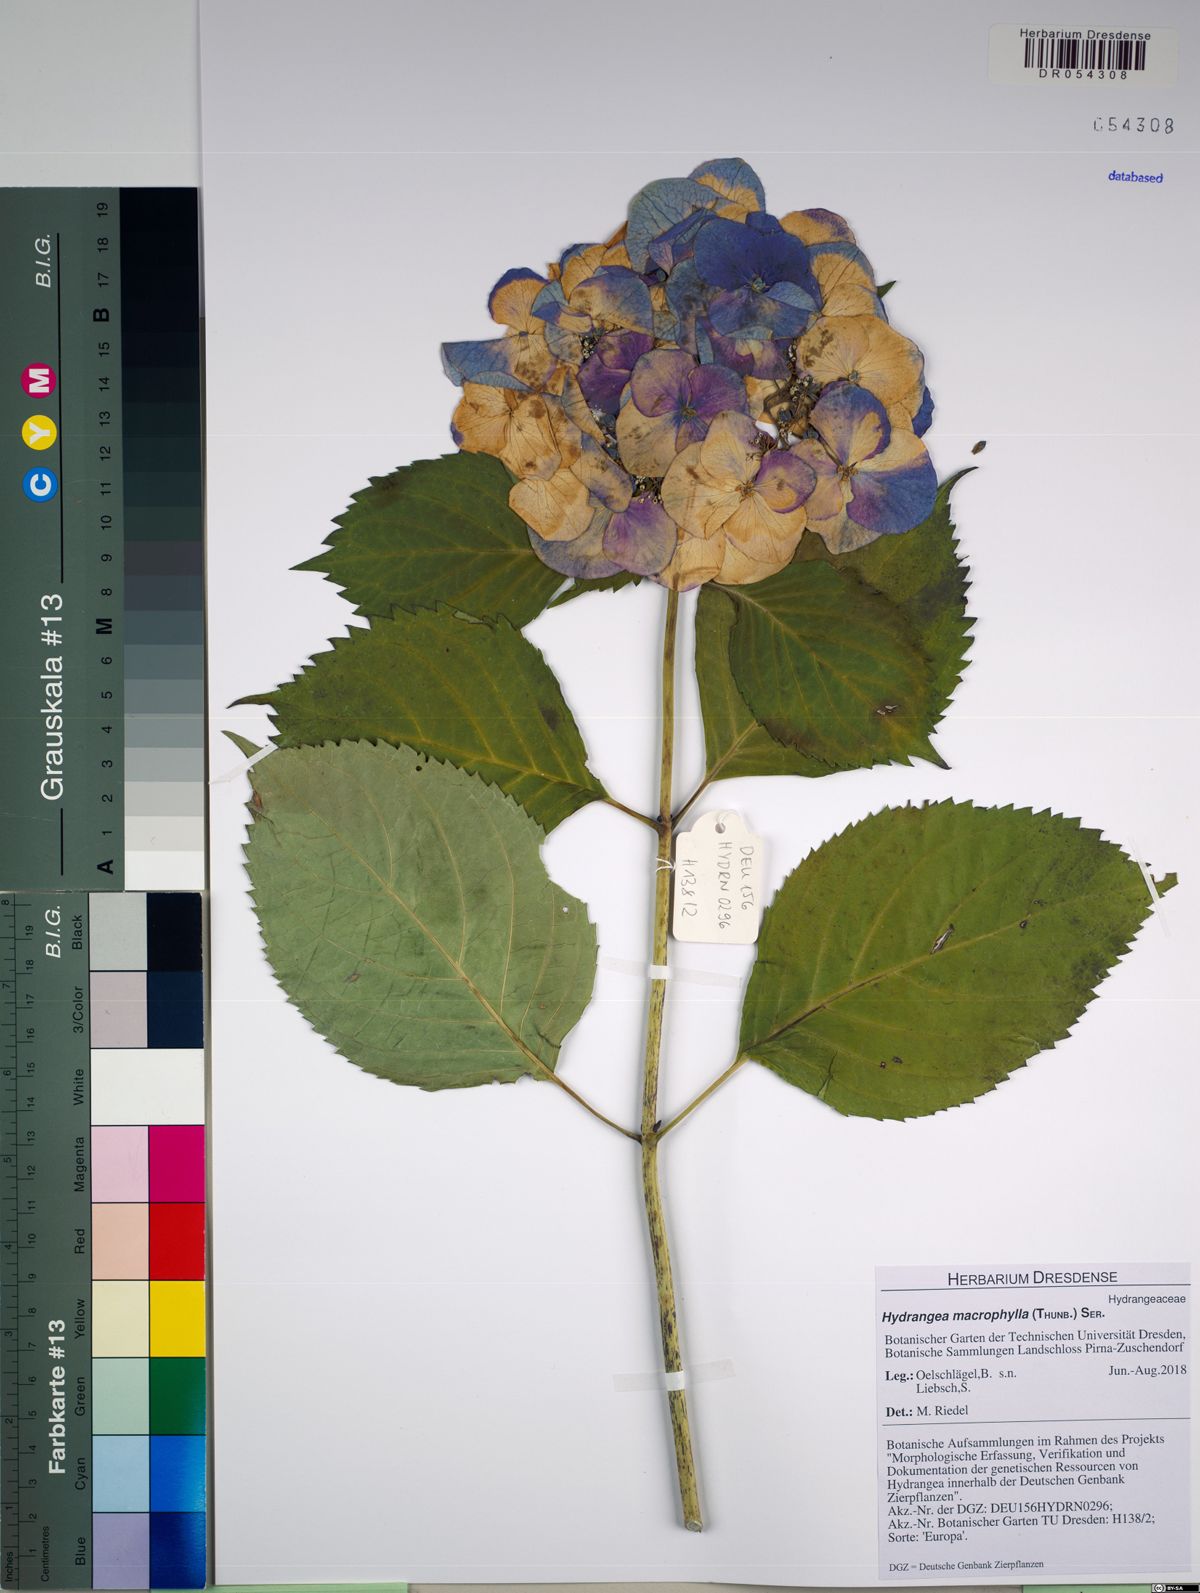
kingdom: Plantae
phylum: Tracheophyta
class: Magnoliopsida
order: Cornales
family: Hydrangeaceae
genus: Hydrangea
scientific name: Hydrangea macrophylla
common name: Hydrangea
